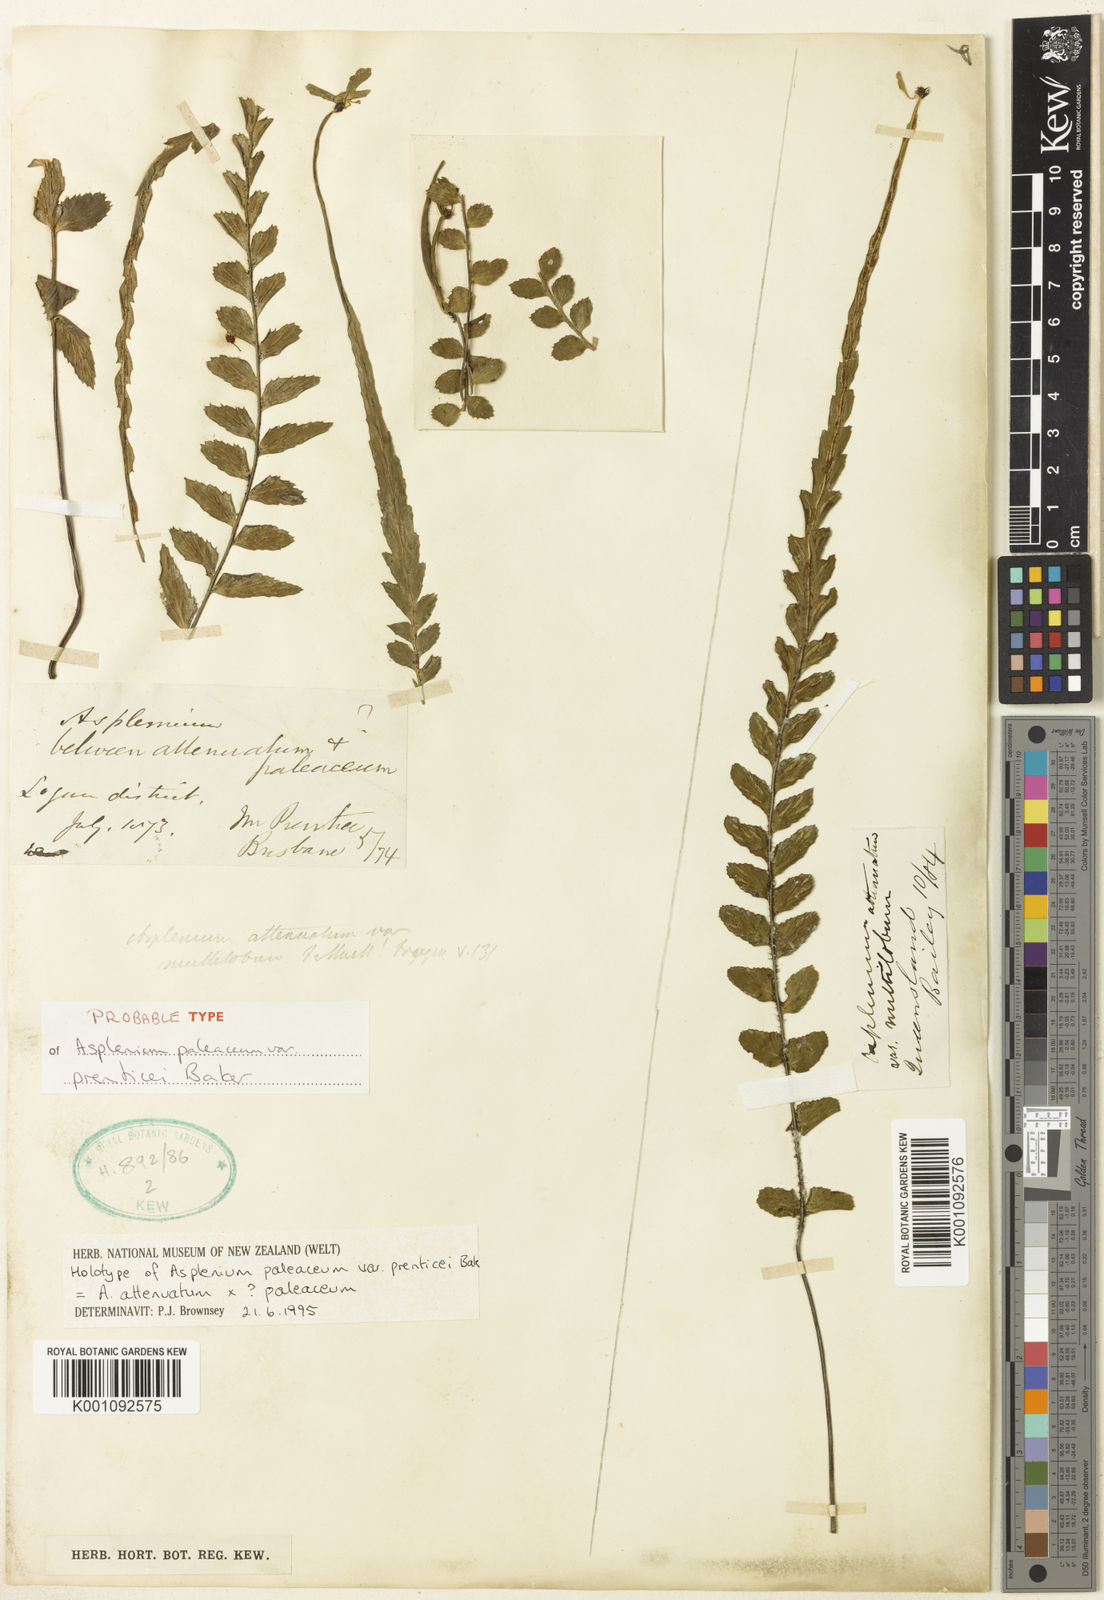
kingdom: Plantae
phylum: Tracheophyta
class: Polypodiopsida
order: Polypodiales
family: Aspleniaceae
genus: Asplenium
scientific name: Asplenium paleaceum
